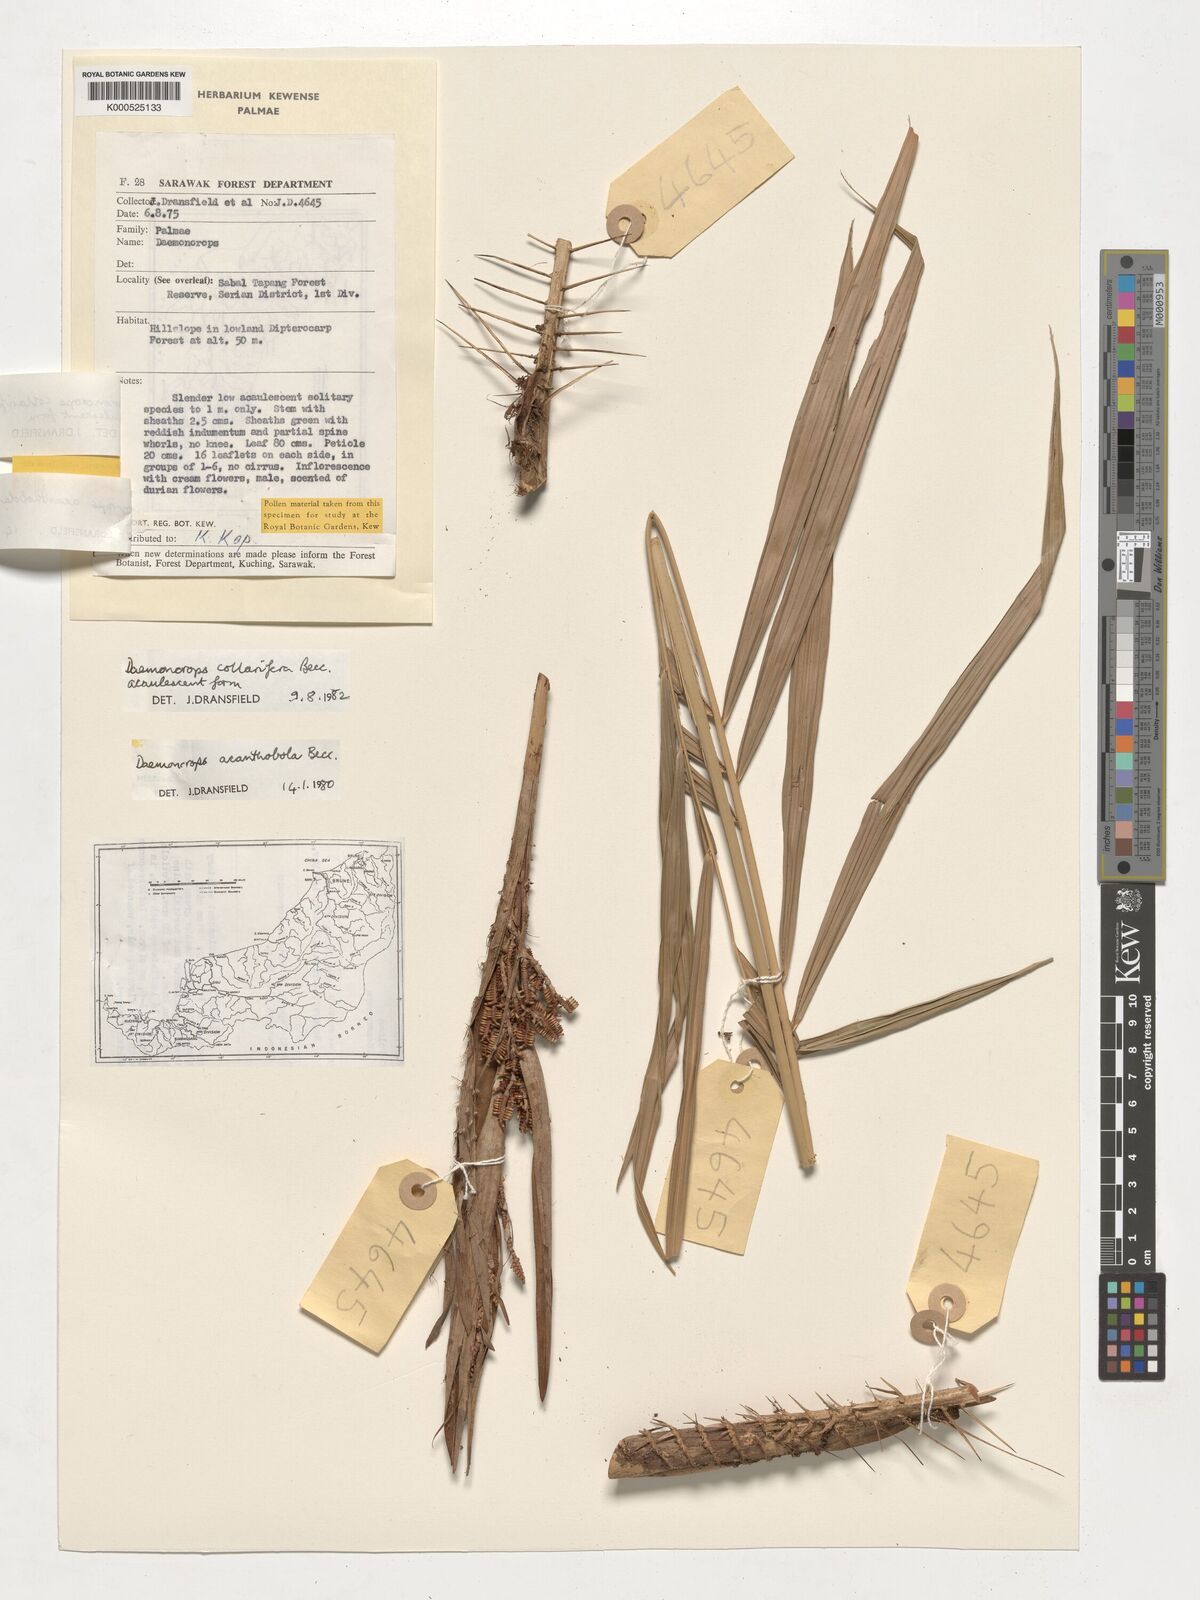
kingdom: Plantae
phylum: Tracheophyta
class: Liliopsida
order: Arecales
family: Arecaceae
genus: Calamus
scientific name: Calamus geniculatus
